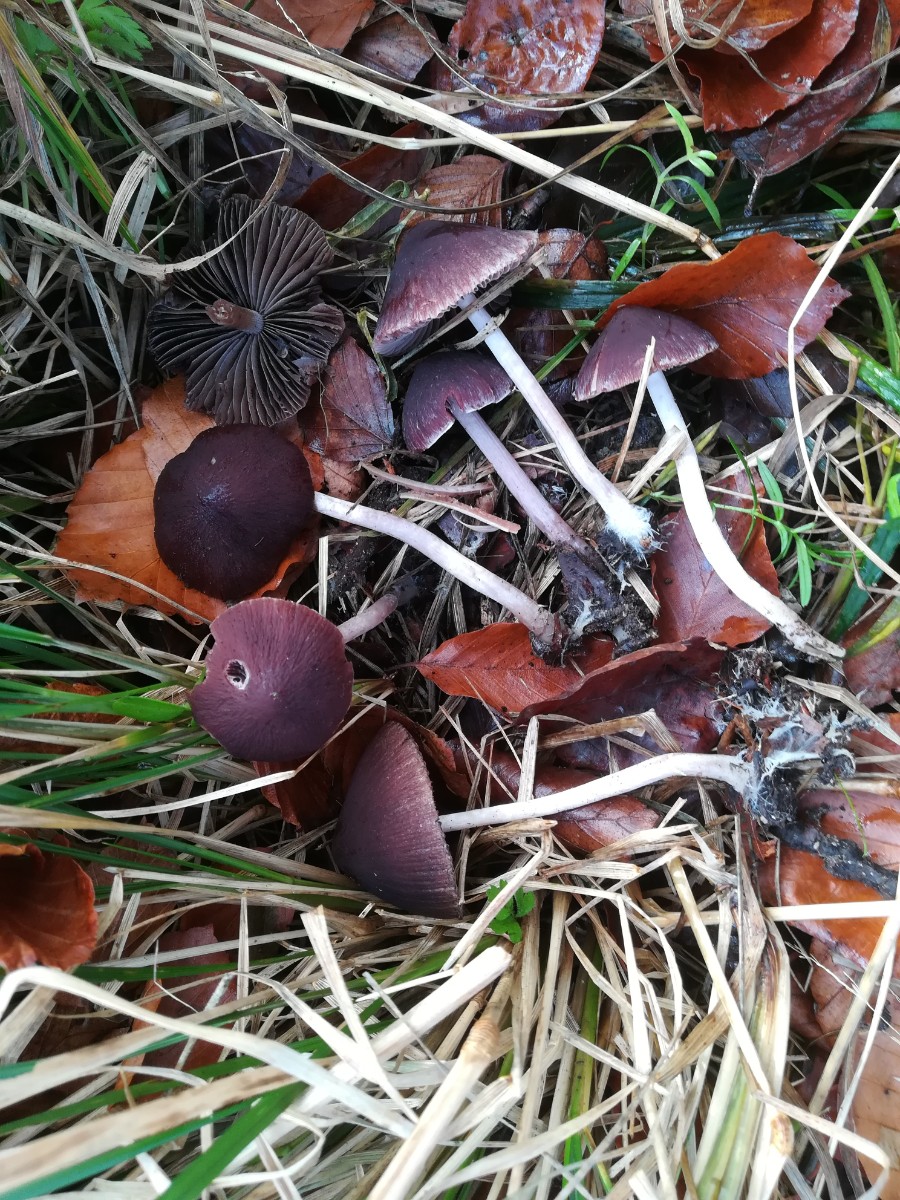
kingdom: Fungi
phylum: Basidiomycota
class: Agaricomycetes
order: Agaricales
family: Psathyrellaceae
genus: Psathyrella
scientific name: Psathyrella bipellis
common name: vinrød mørkhat
